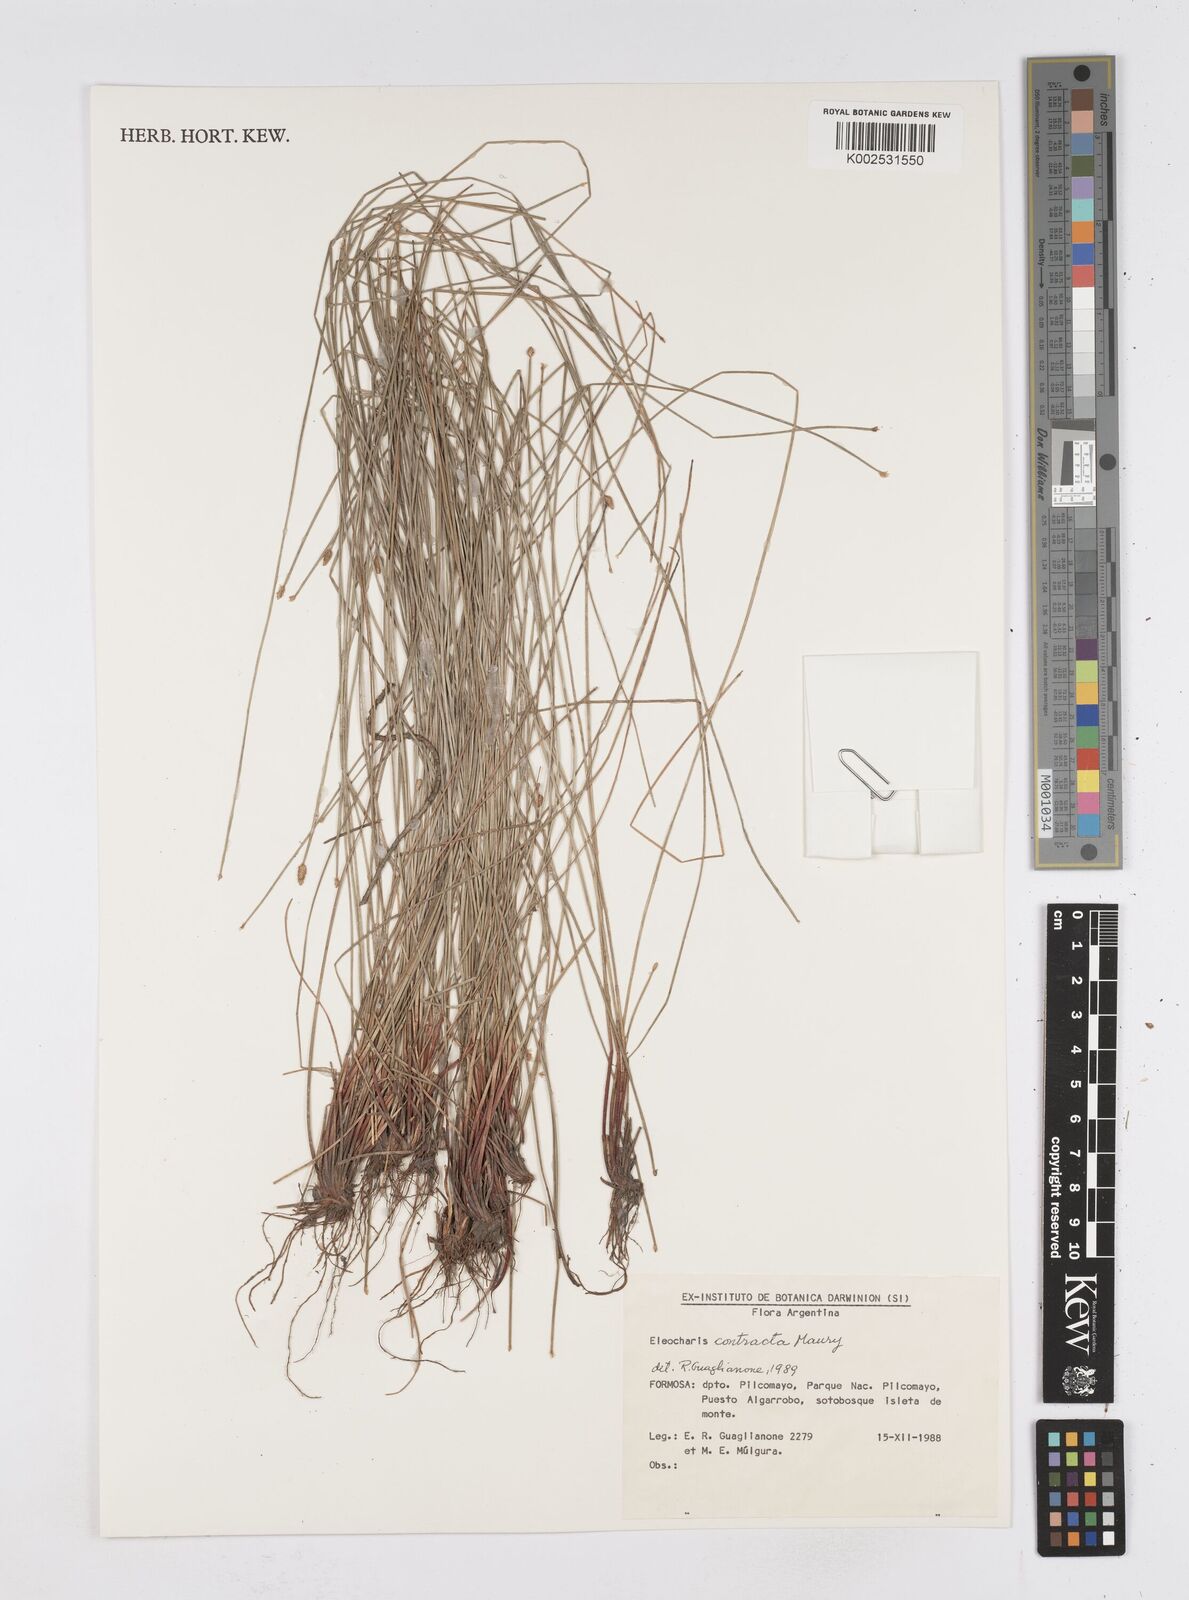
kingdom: Plantae
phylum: Tracheophyta
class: Liliopsida
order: Poales
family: Cyperaceae
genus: Eleocharis
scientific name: Eleocharis montana
